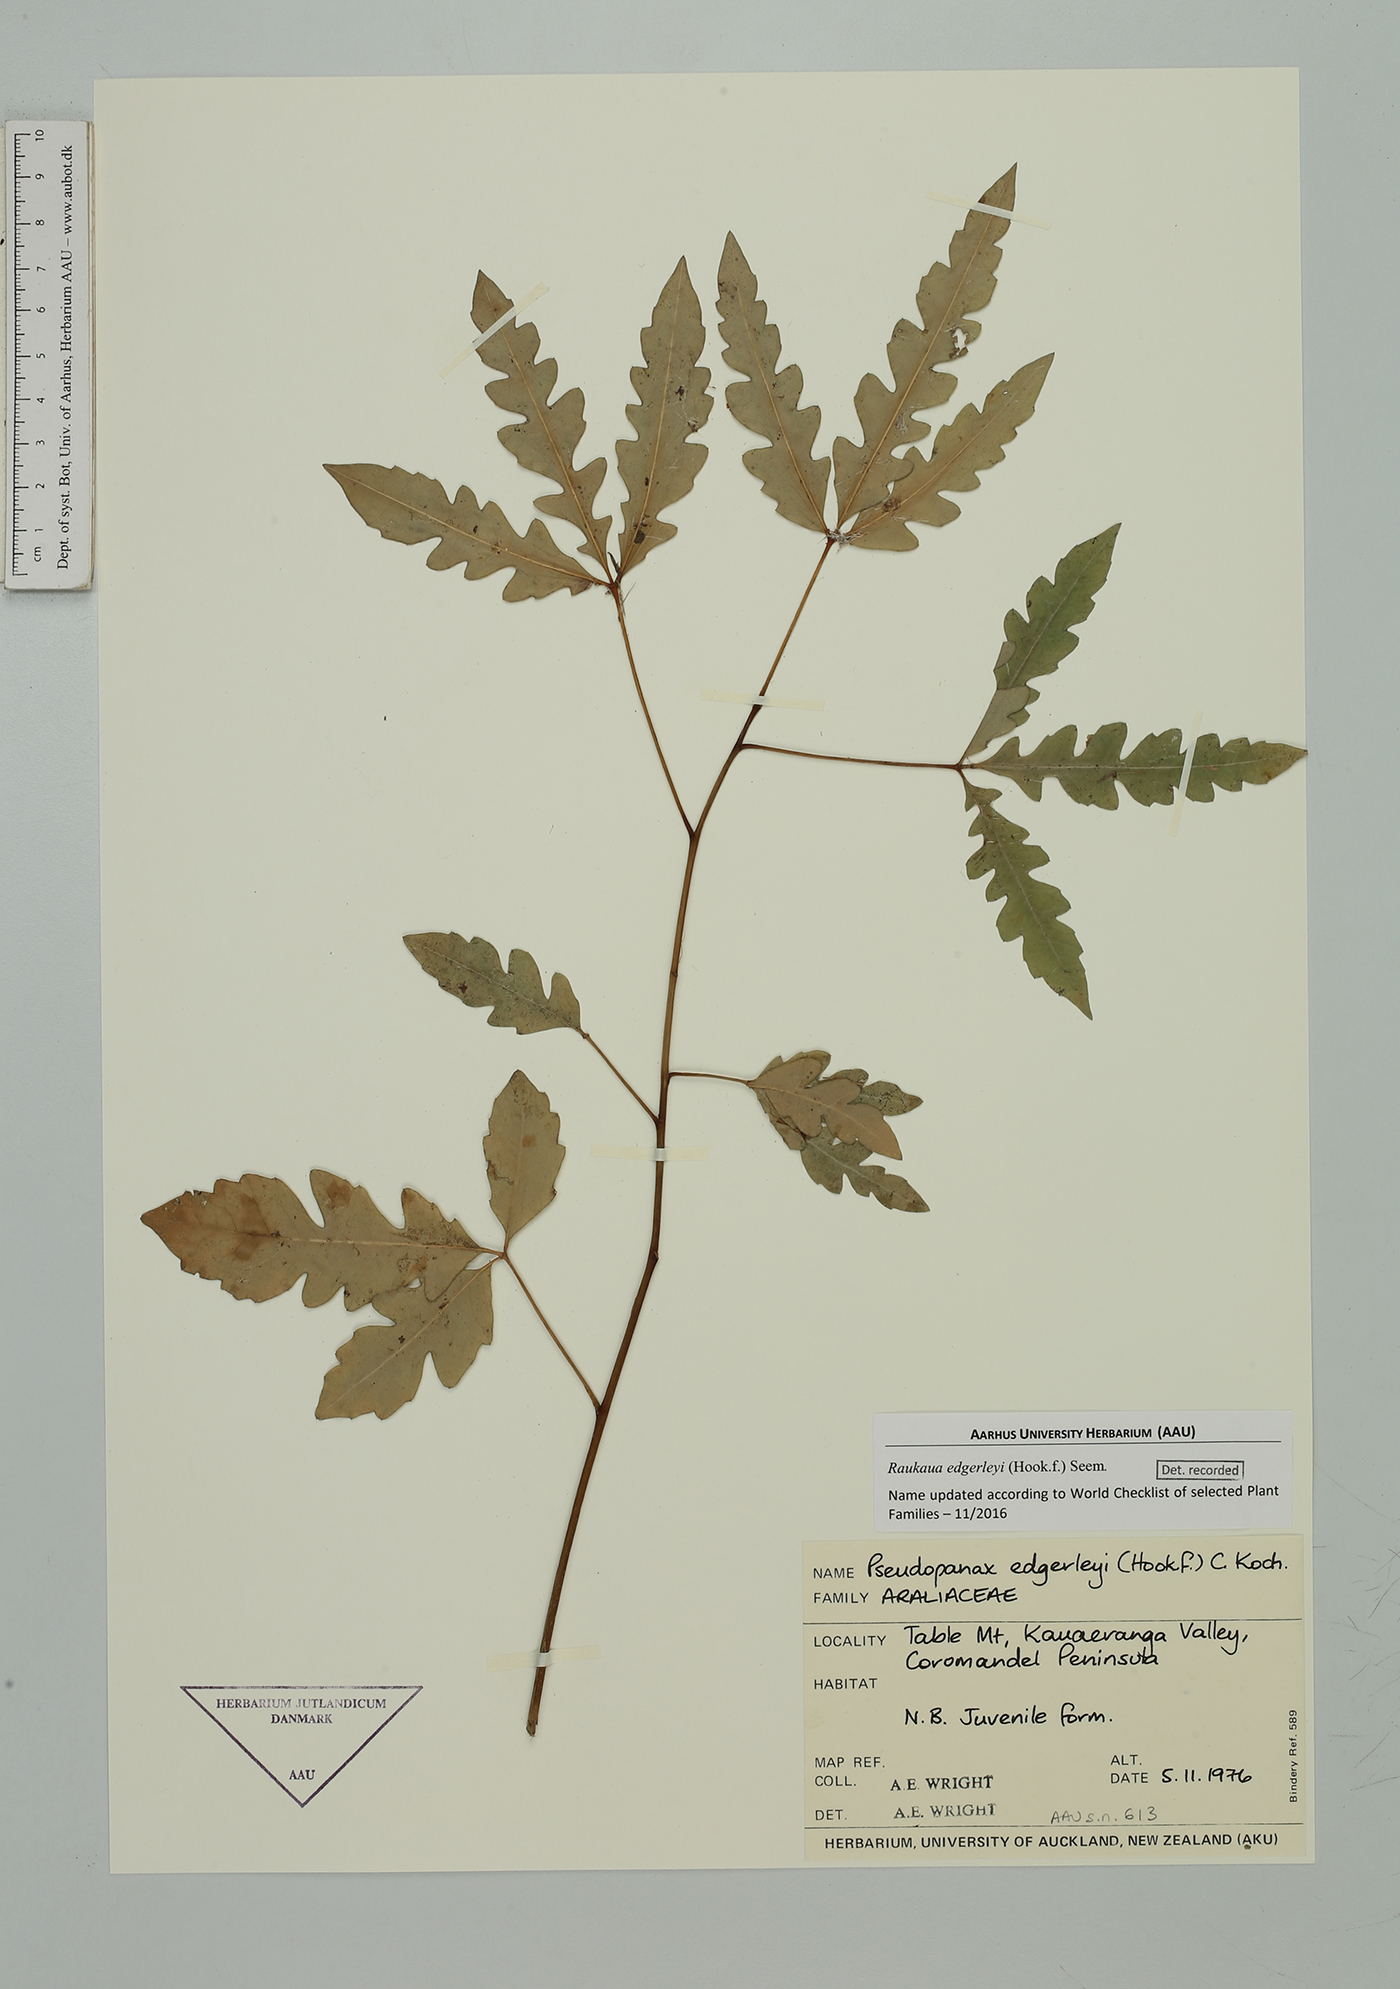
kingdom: Plantae
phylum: Tracheophyta
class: Magnoliopsida
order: Apiales
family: Araliaceae
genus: Raukaua
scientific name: Raukaua edgerleyi
